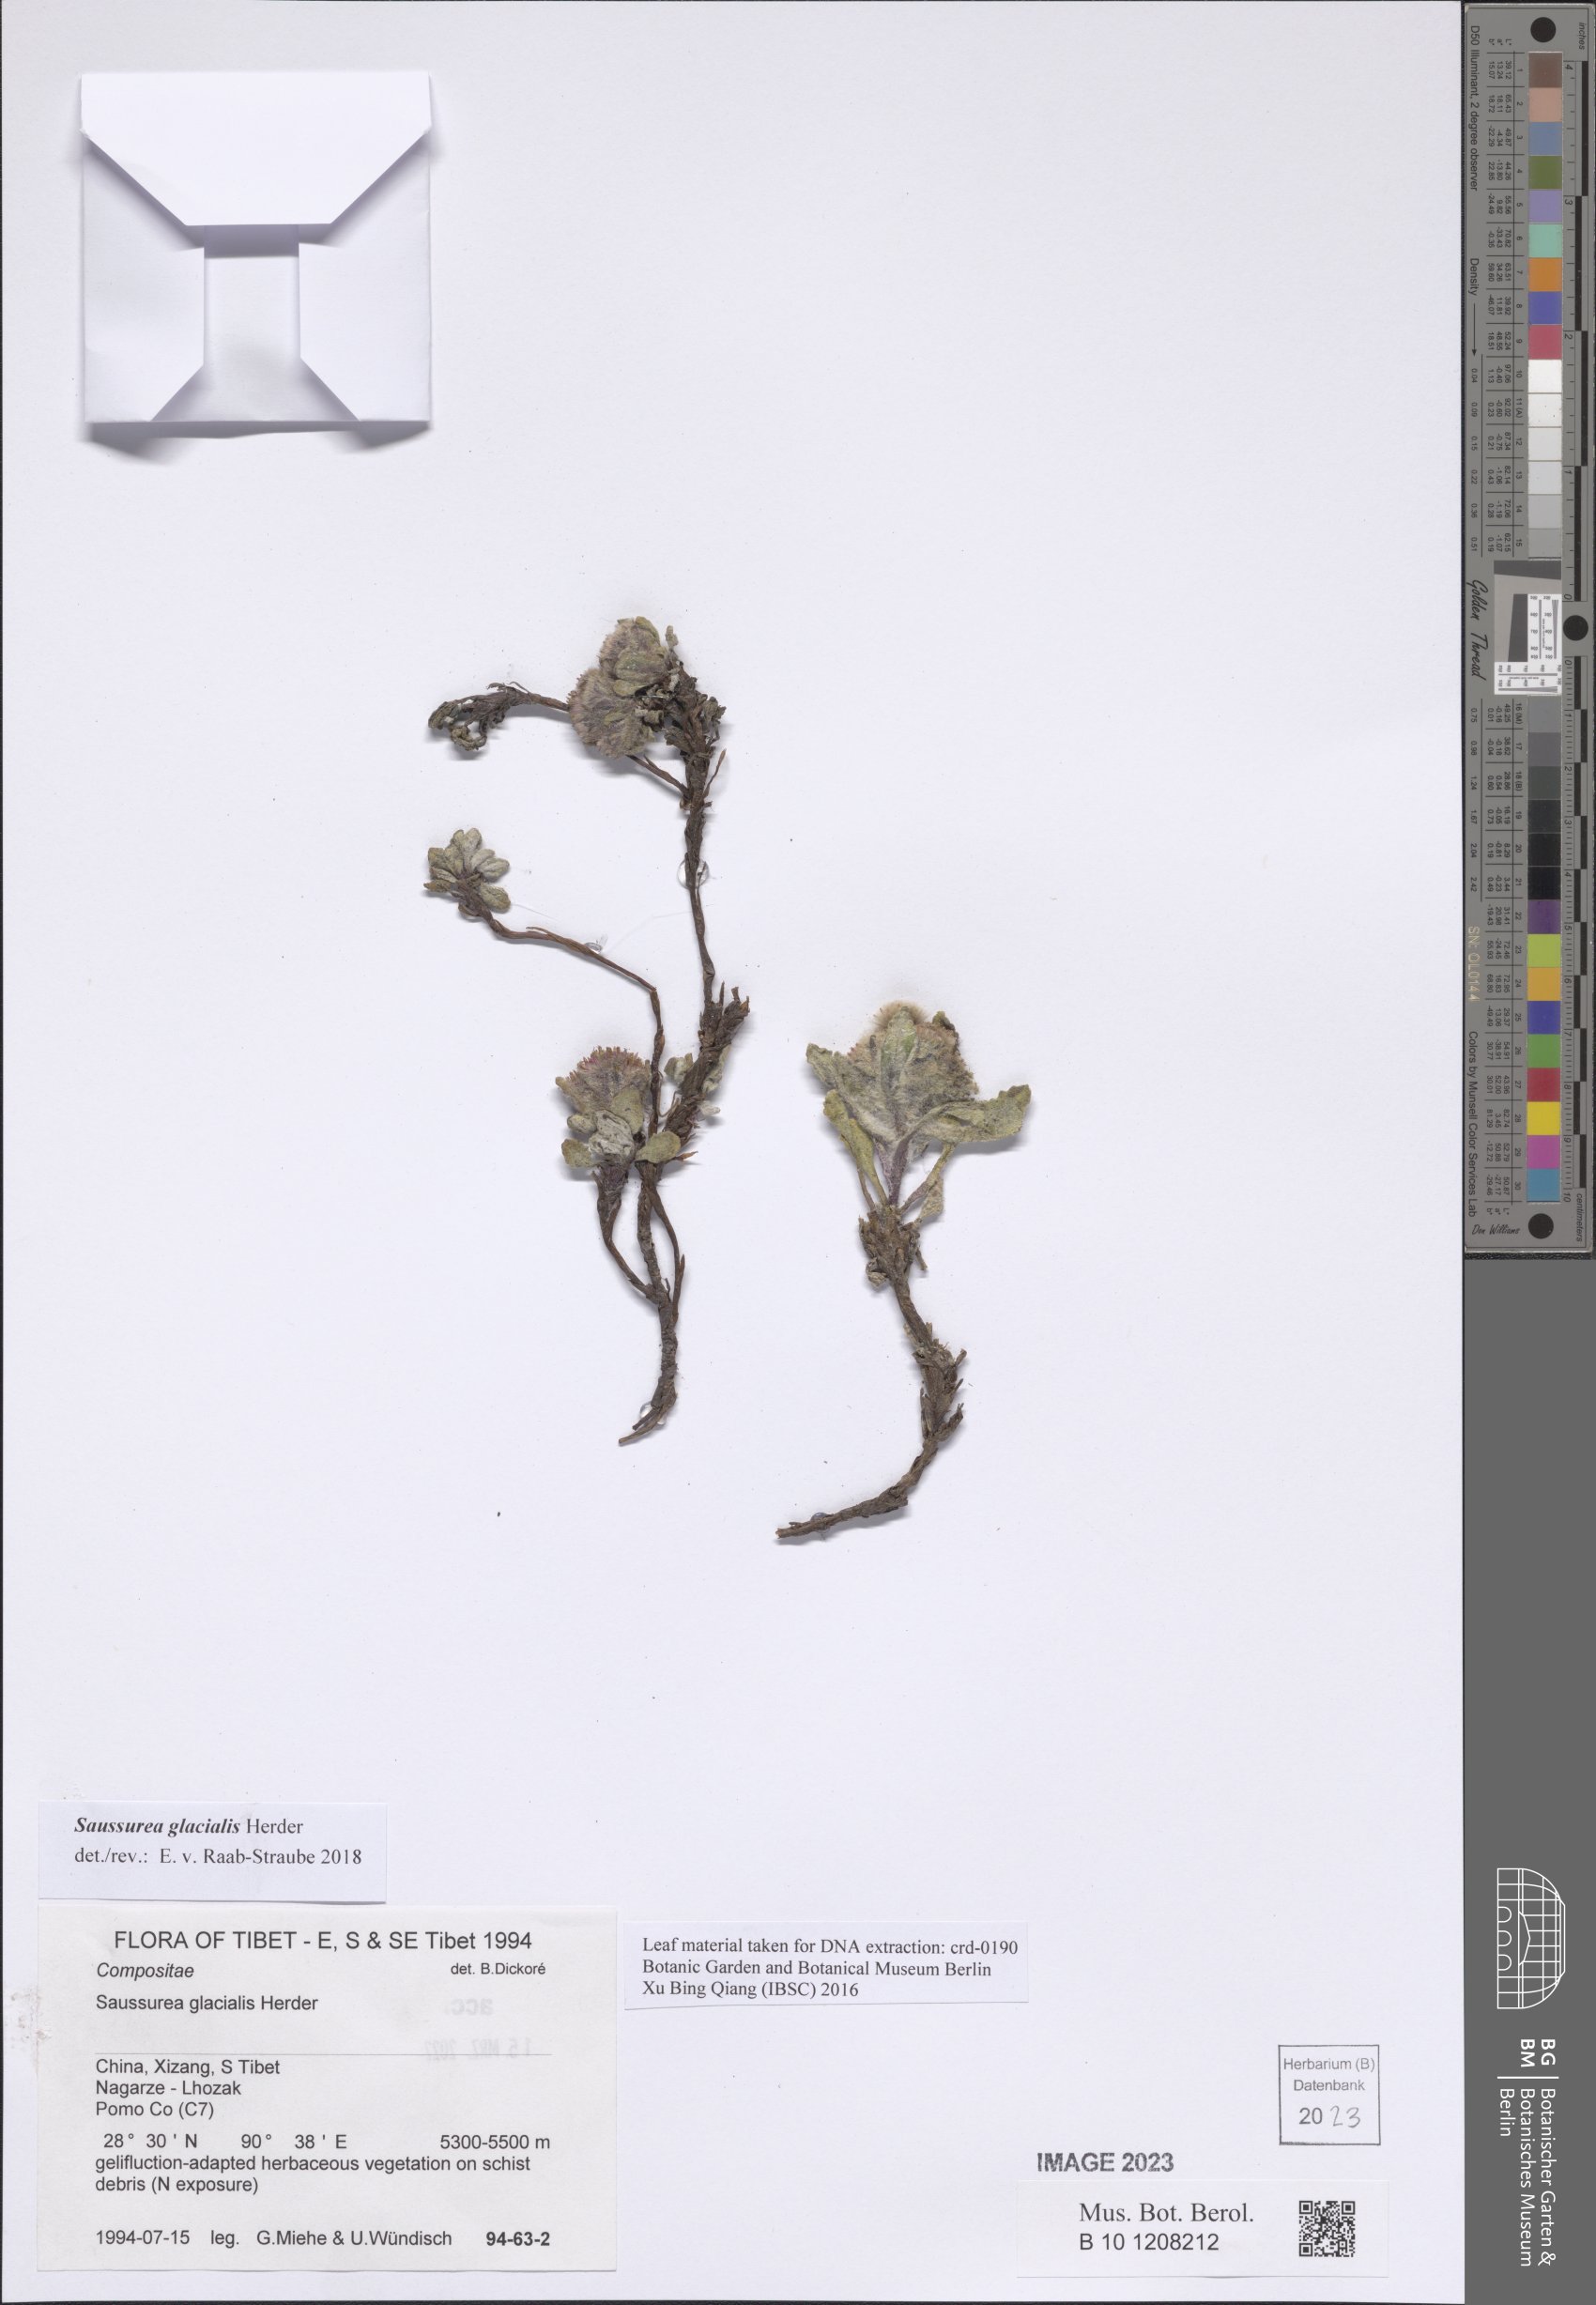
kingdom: Plantae
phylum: Tracheophyta
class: Magnoliopsida
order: Asterales
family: Asteraceae
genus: Saussurea
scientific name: Saussurea glacialis
